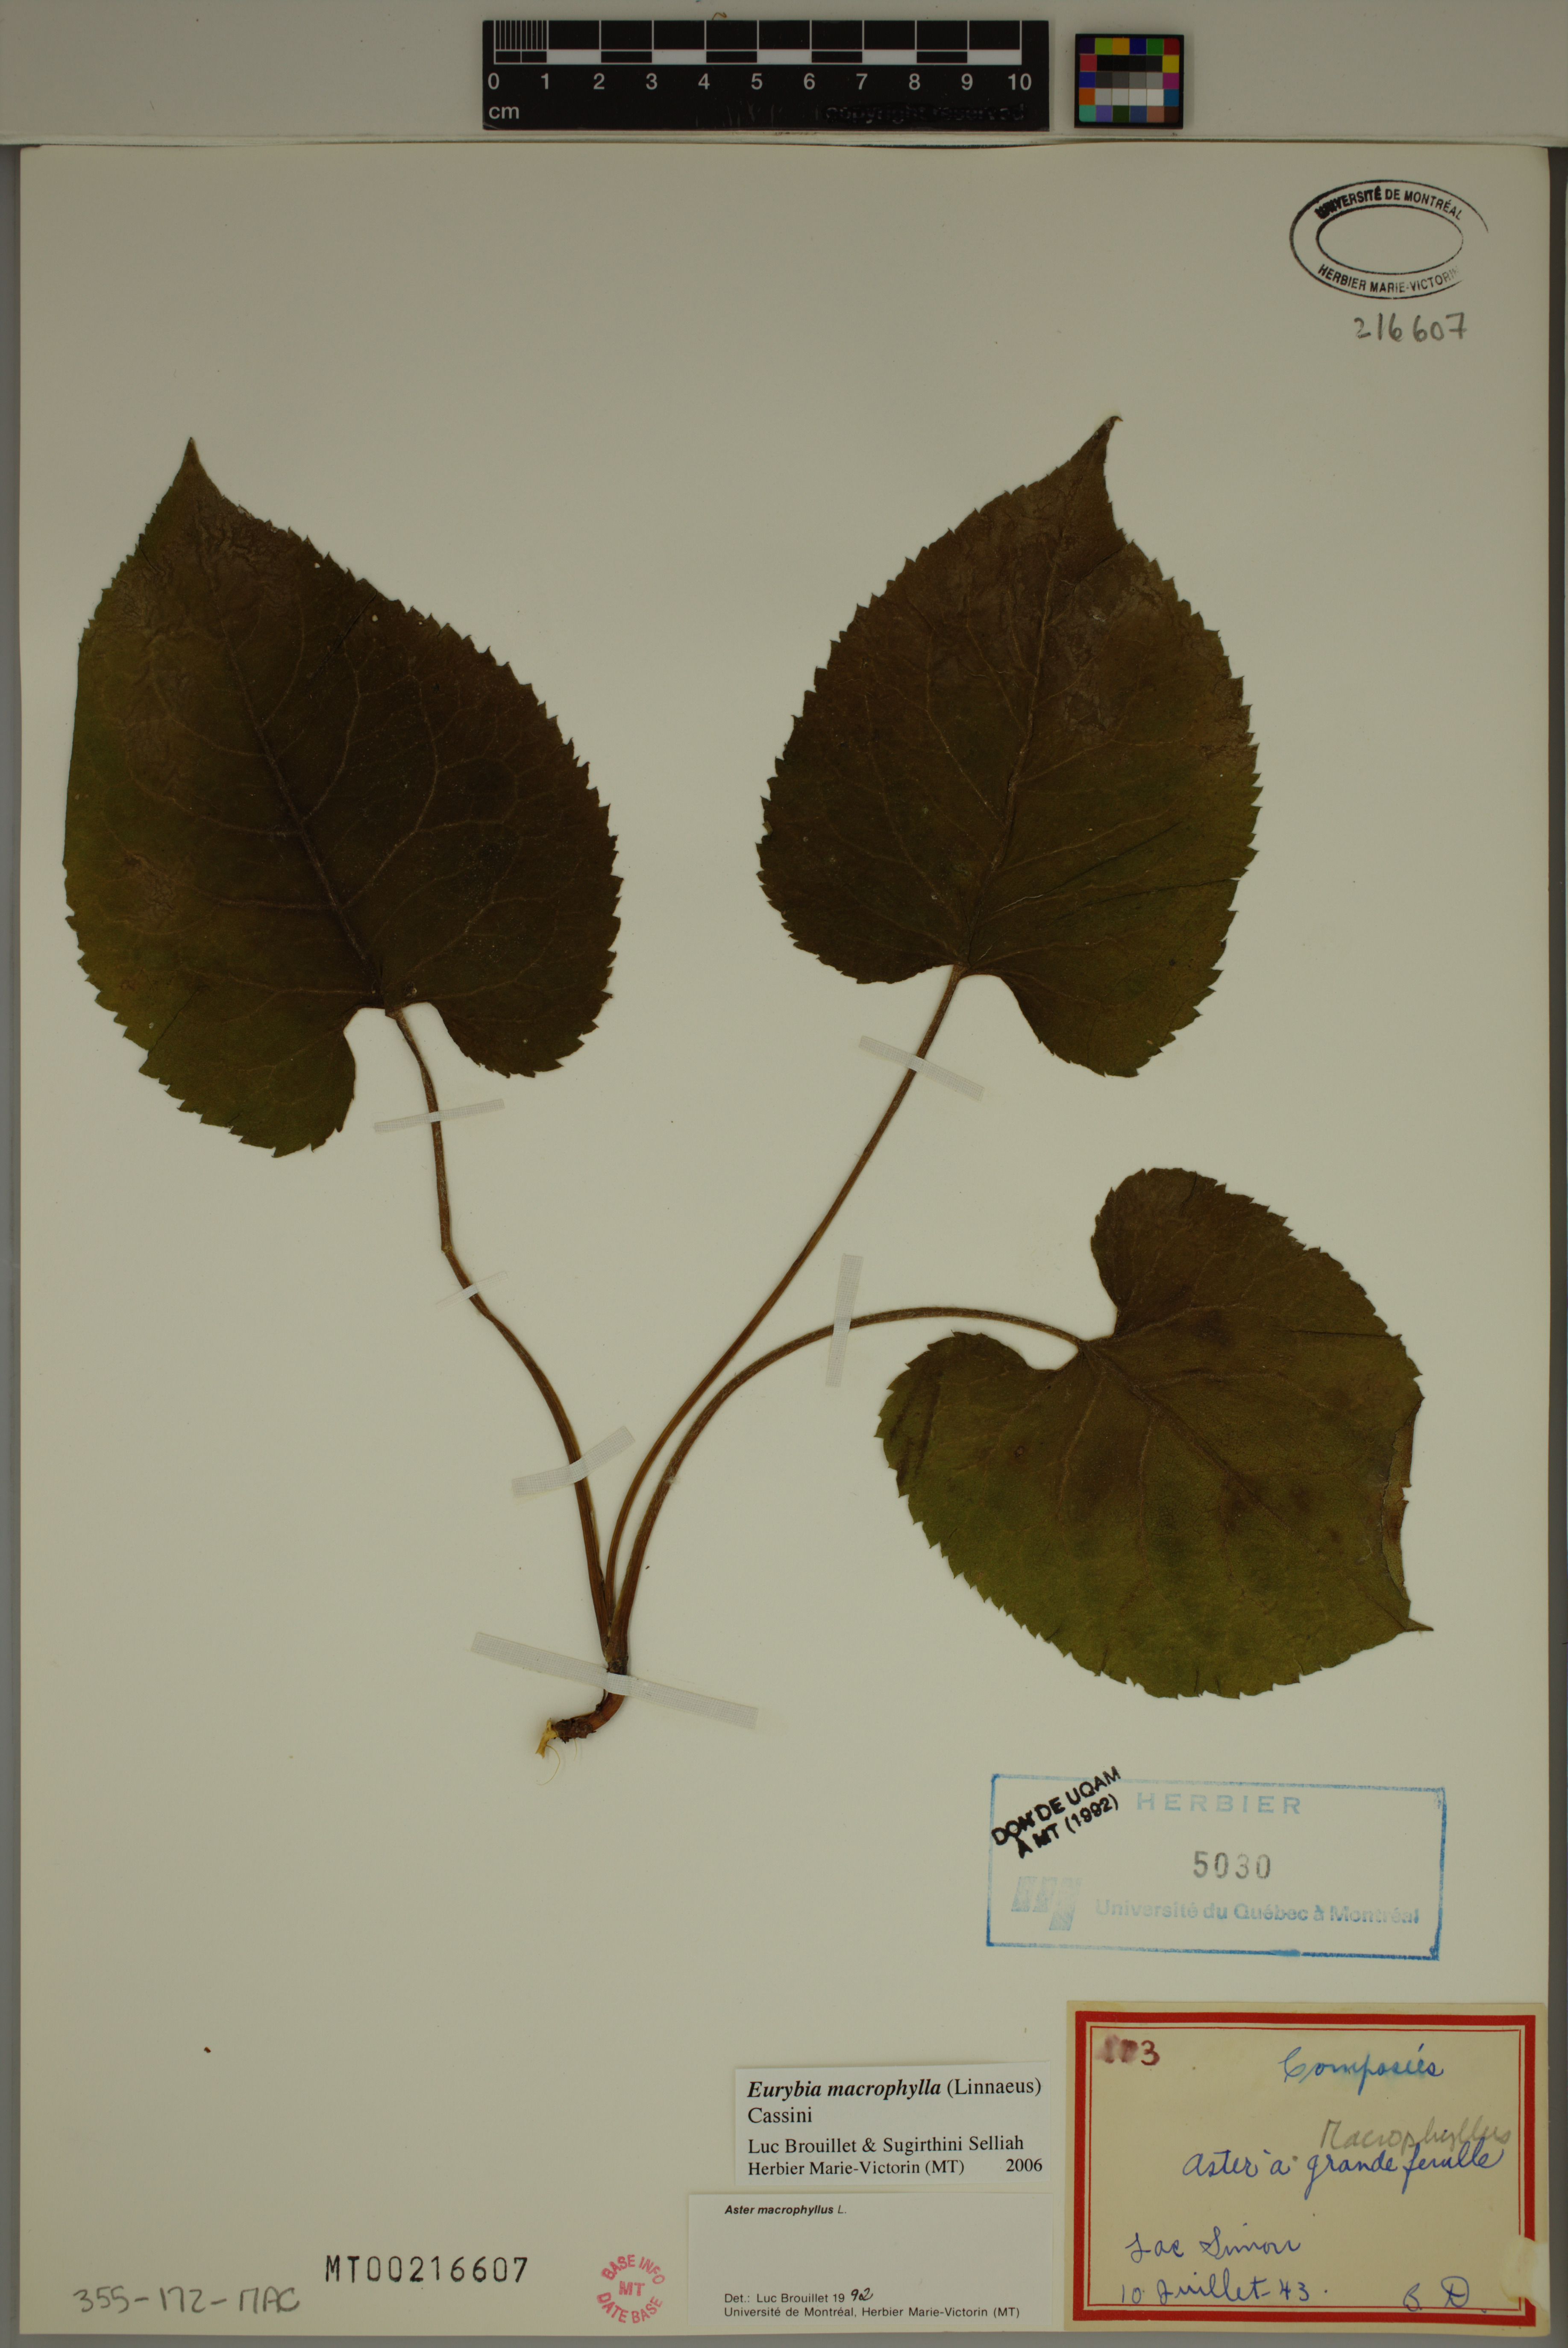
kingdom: Plantae
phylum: Tracheophyta
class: Magnoliopsida
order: Asterales
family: Asteraceae
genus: Eurybia
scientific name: Eurybia macrophylla
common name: Big-leaved aster
